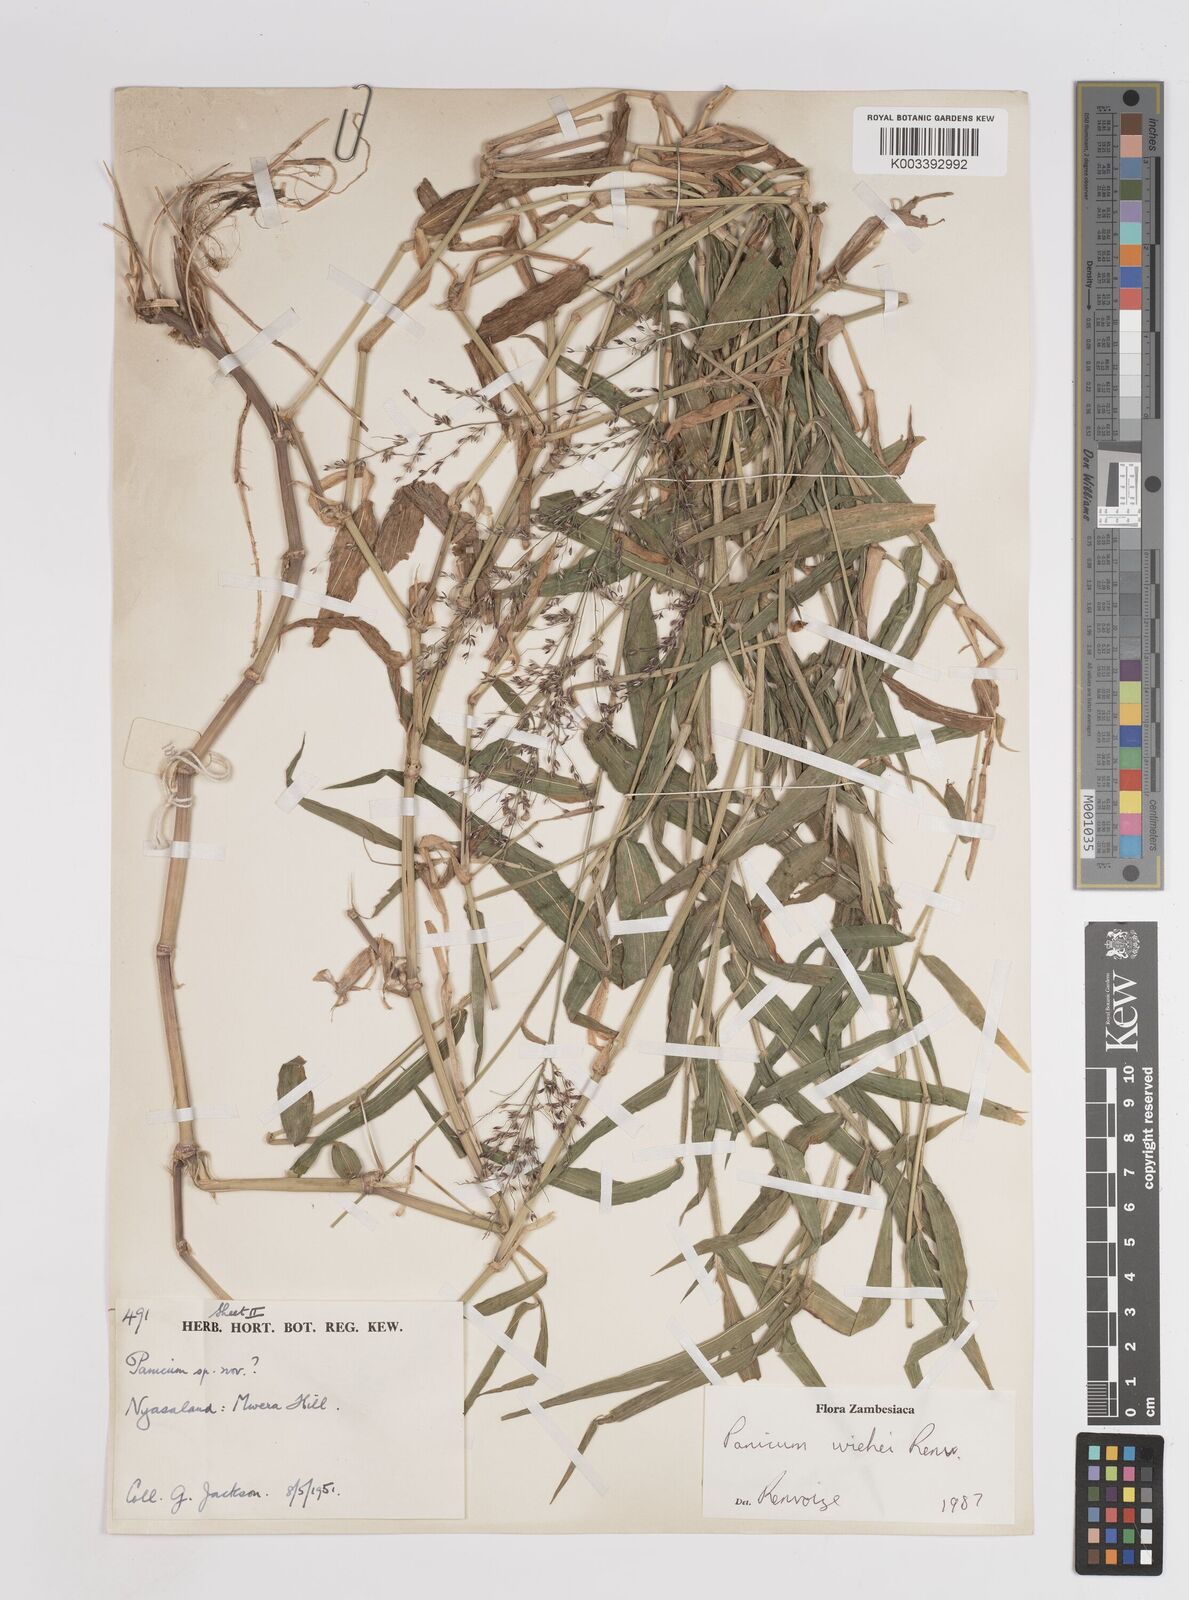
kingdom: Plantae
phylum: Tracheophyta
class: Liliopsida
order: Poales
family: Poaceae
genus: Panicum
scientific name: Panicum wiehei
